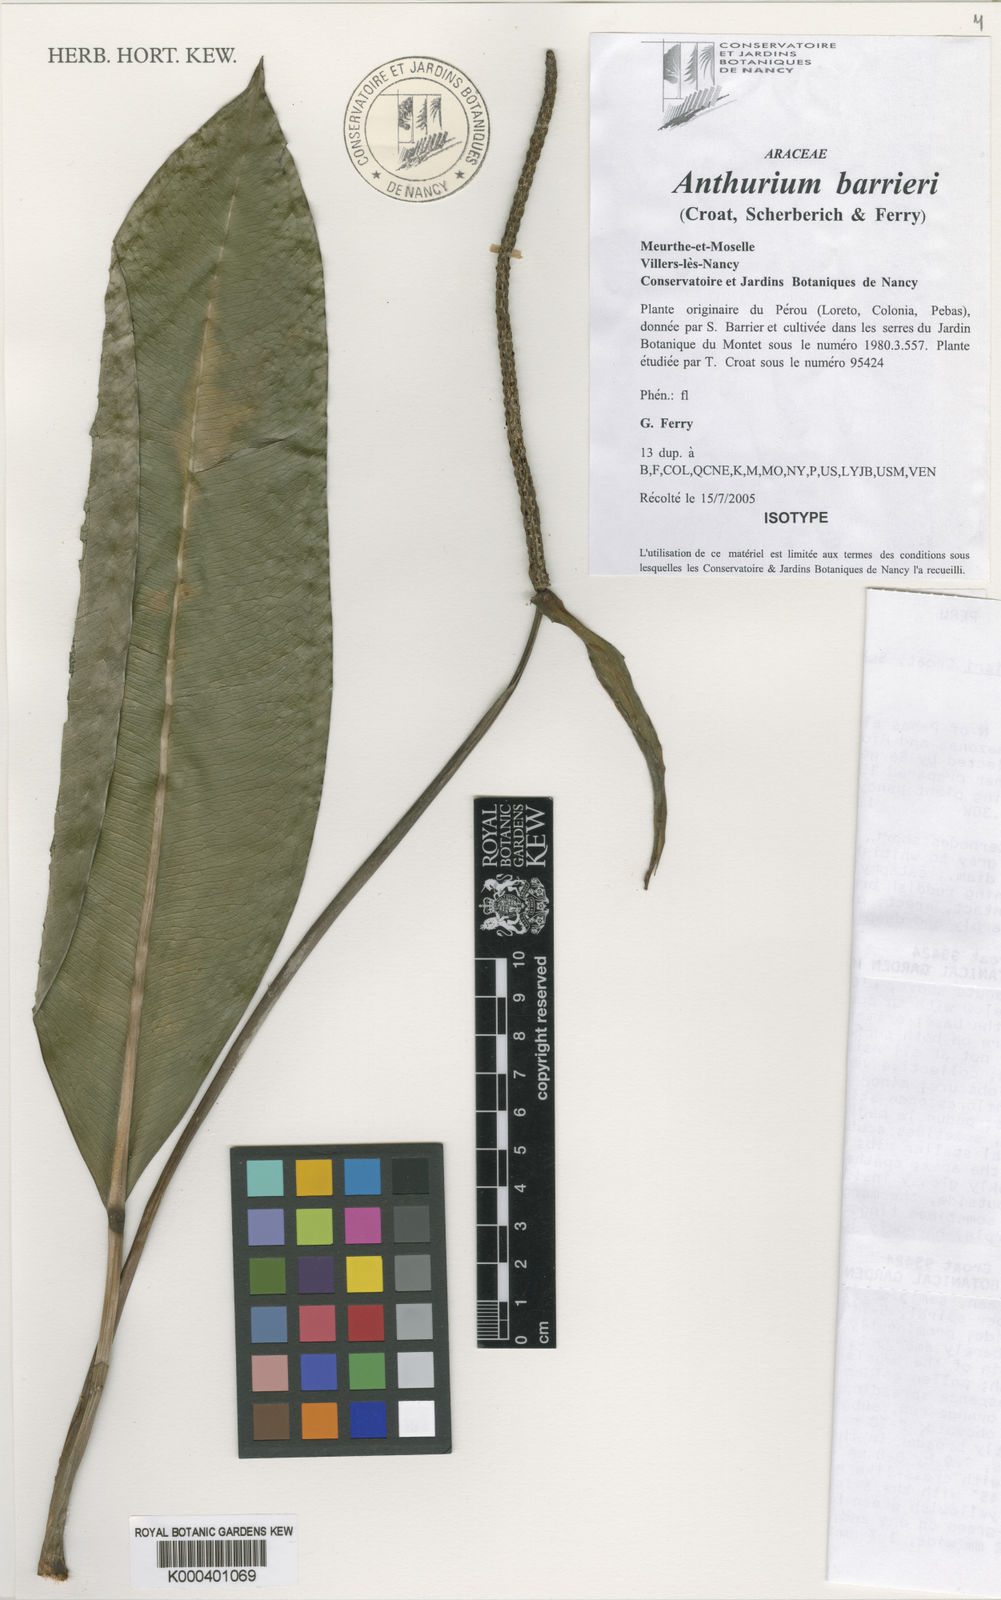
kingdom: Plantae
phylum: Tracheophyta
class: Liliopsida
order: Alismatales
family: Araceae
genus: Anthurium
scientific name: Anthurium
